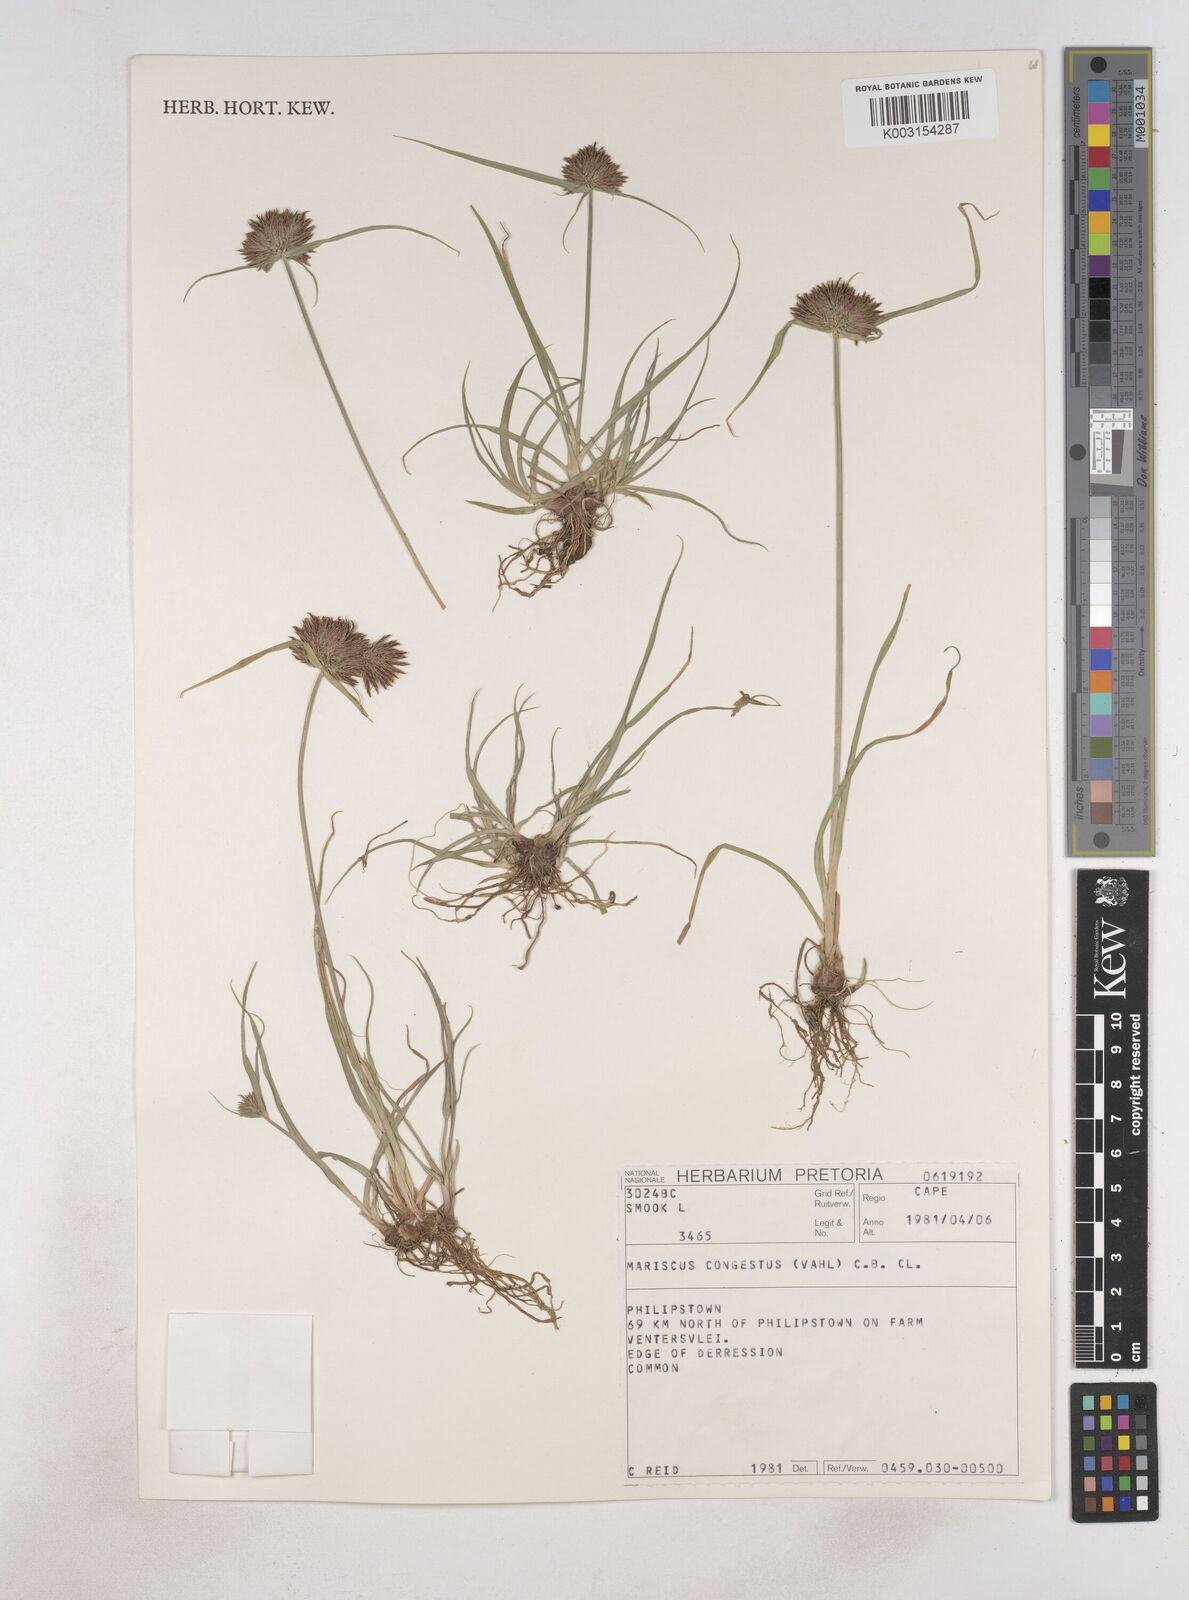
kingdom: Plantae
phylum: Tracheophyta
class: Liliopsida
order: Poales
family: Cyperaceae
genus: Cyperus
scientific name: Cyperus congestus
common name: Dense flat sedge
